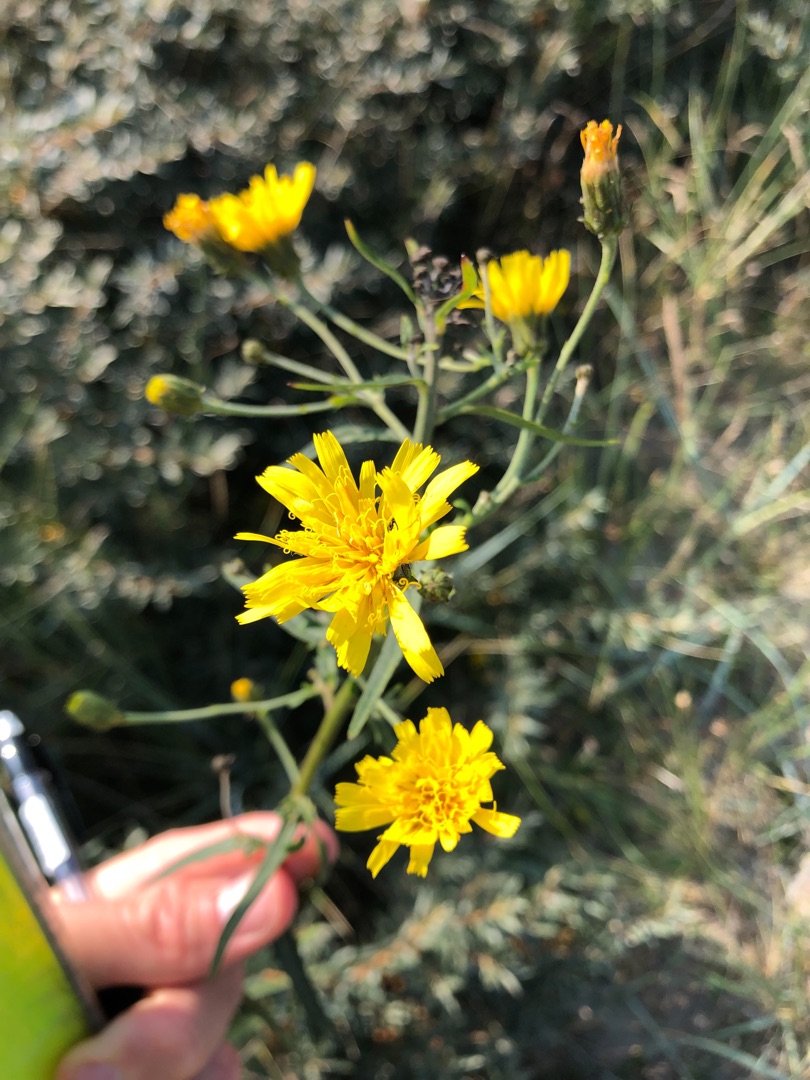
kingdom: Plantae
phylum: Tracheophyta
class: Magnoliopsida
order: Asterales
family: Asteraceae
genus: Hieracium
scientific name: Hieracium umbellatum
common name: Smalbladet høgeurt
